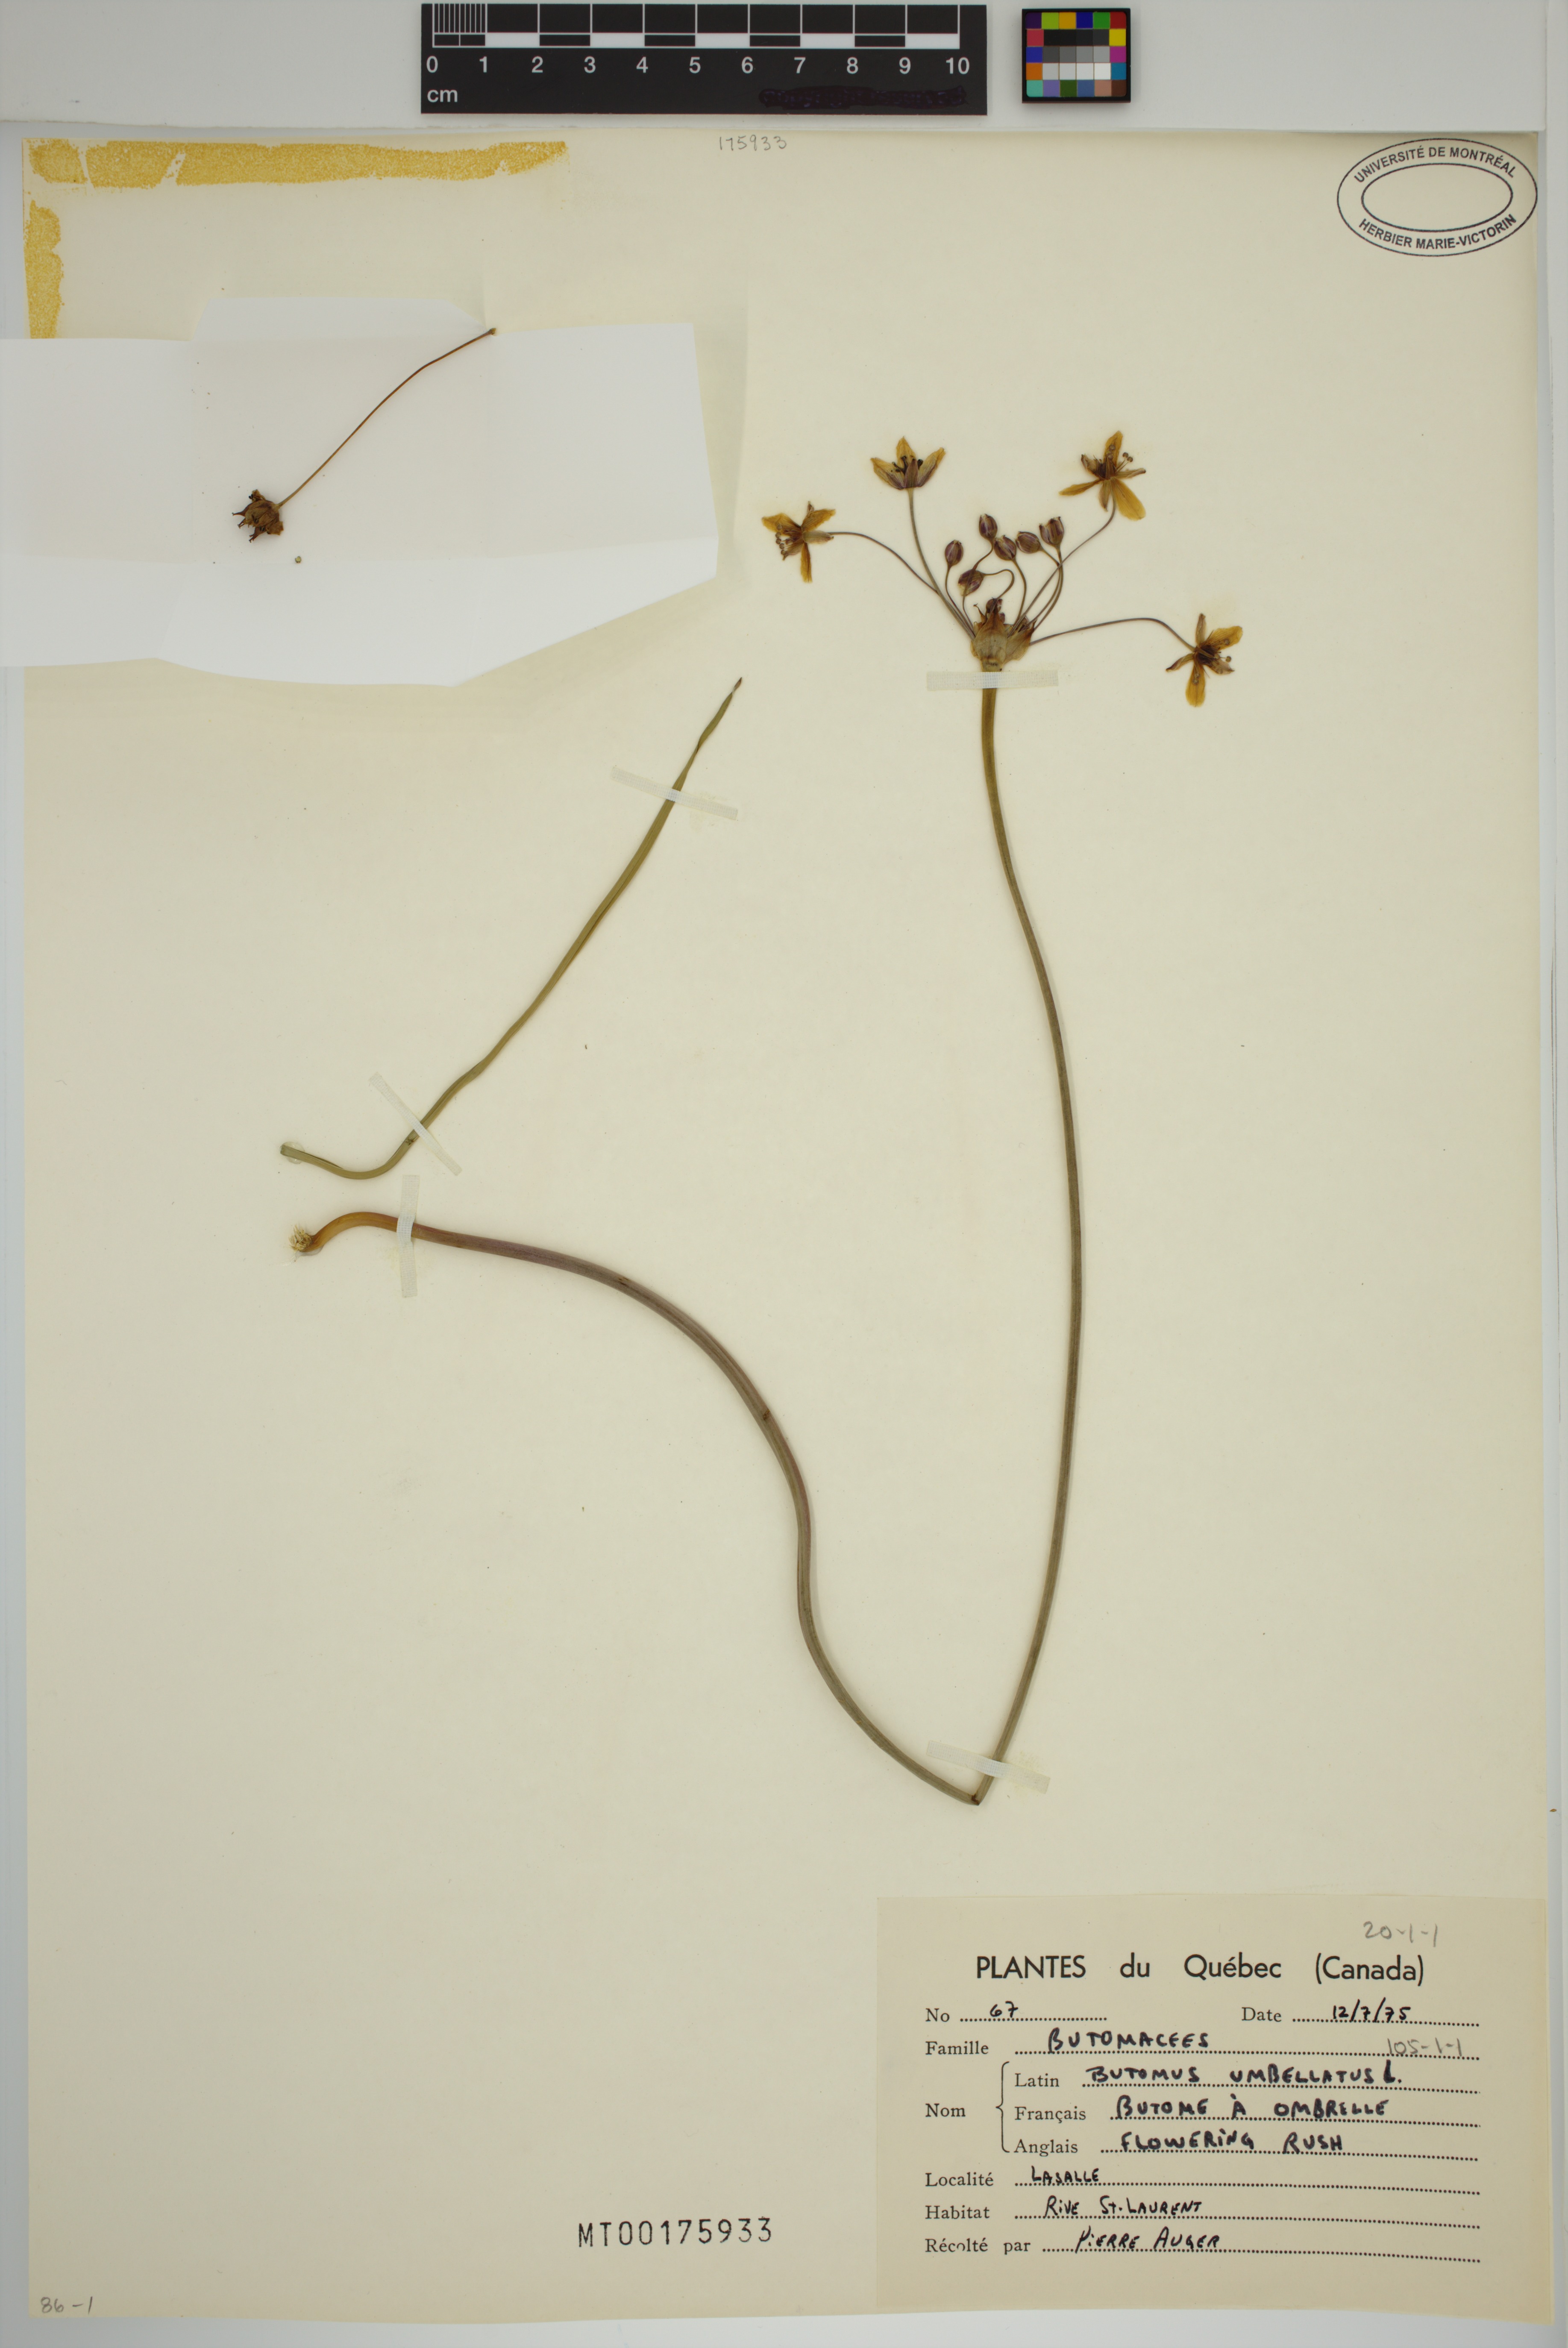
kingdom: Plantae
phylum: Tracheophyta
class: Liliopsida
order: Alismatales
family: Butomaceae
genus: Butomus
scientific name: Butomus umbellatus
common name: Flowering-rush
